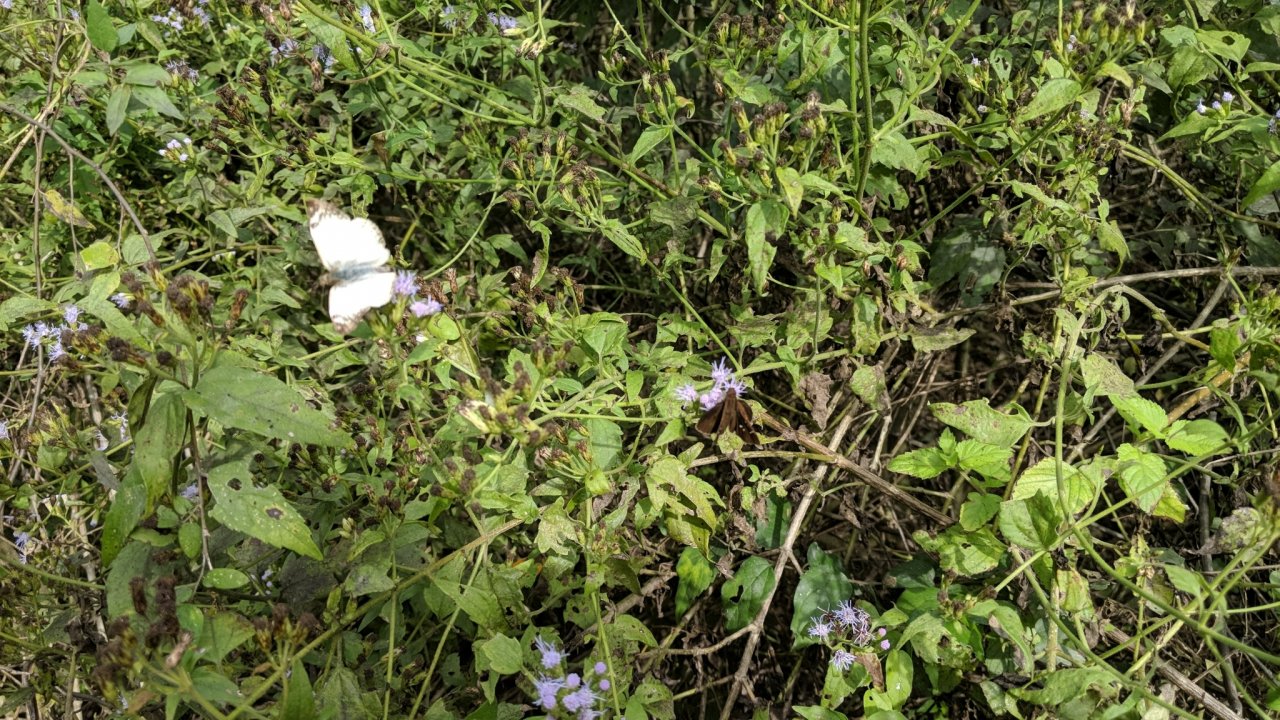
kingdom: Animalia
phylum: Arthropoda
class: Insecta
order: Lepidoptera
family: Nymphalidae
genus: Danaus
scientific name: Danaus gilippus
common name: Queen
